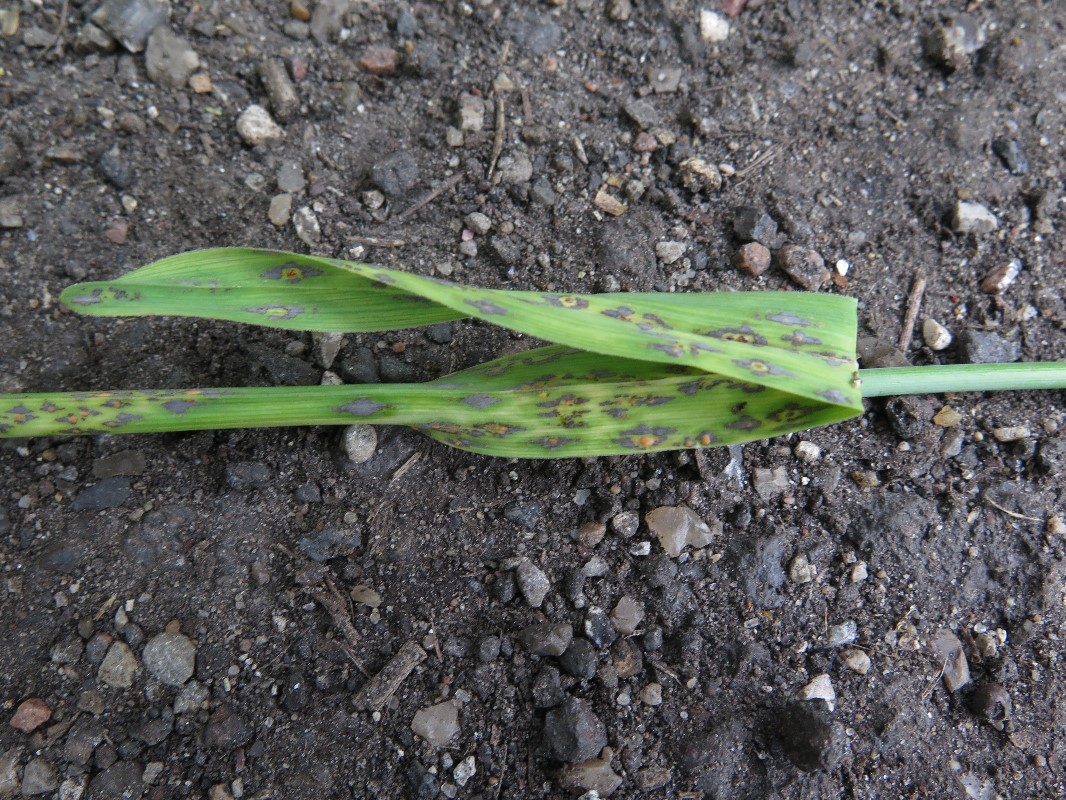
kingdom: Fungi
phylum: Basidiomycota
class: Pucciniomycetes
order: Pucciniales
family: Pucciniaceae
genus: Puccinia
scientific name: Puccinia porri
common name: Allium rust
